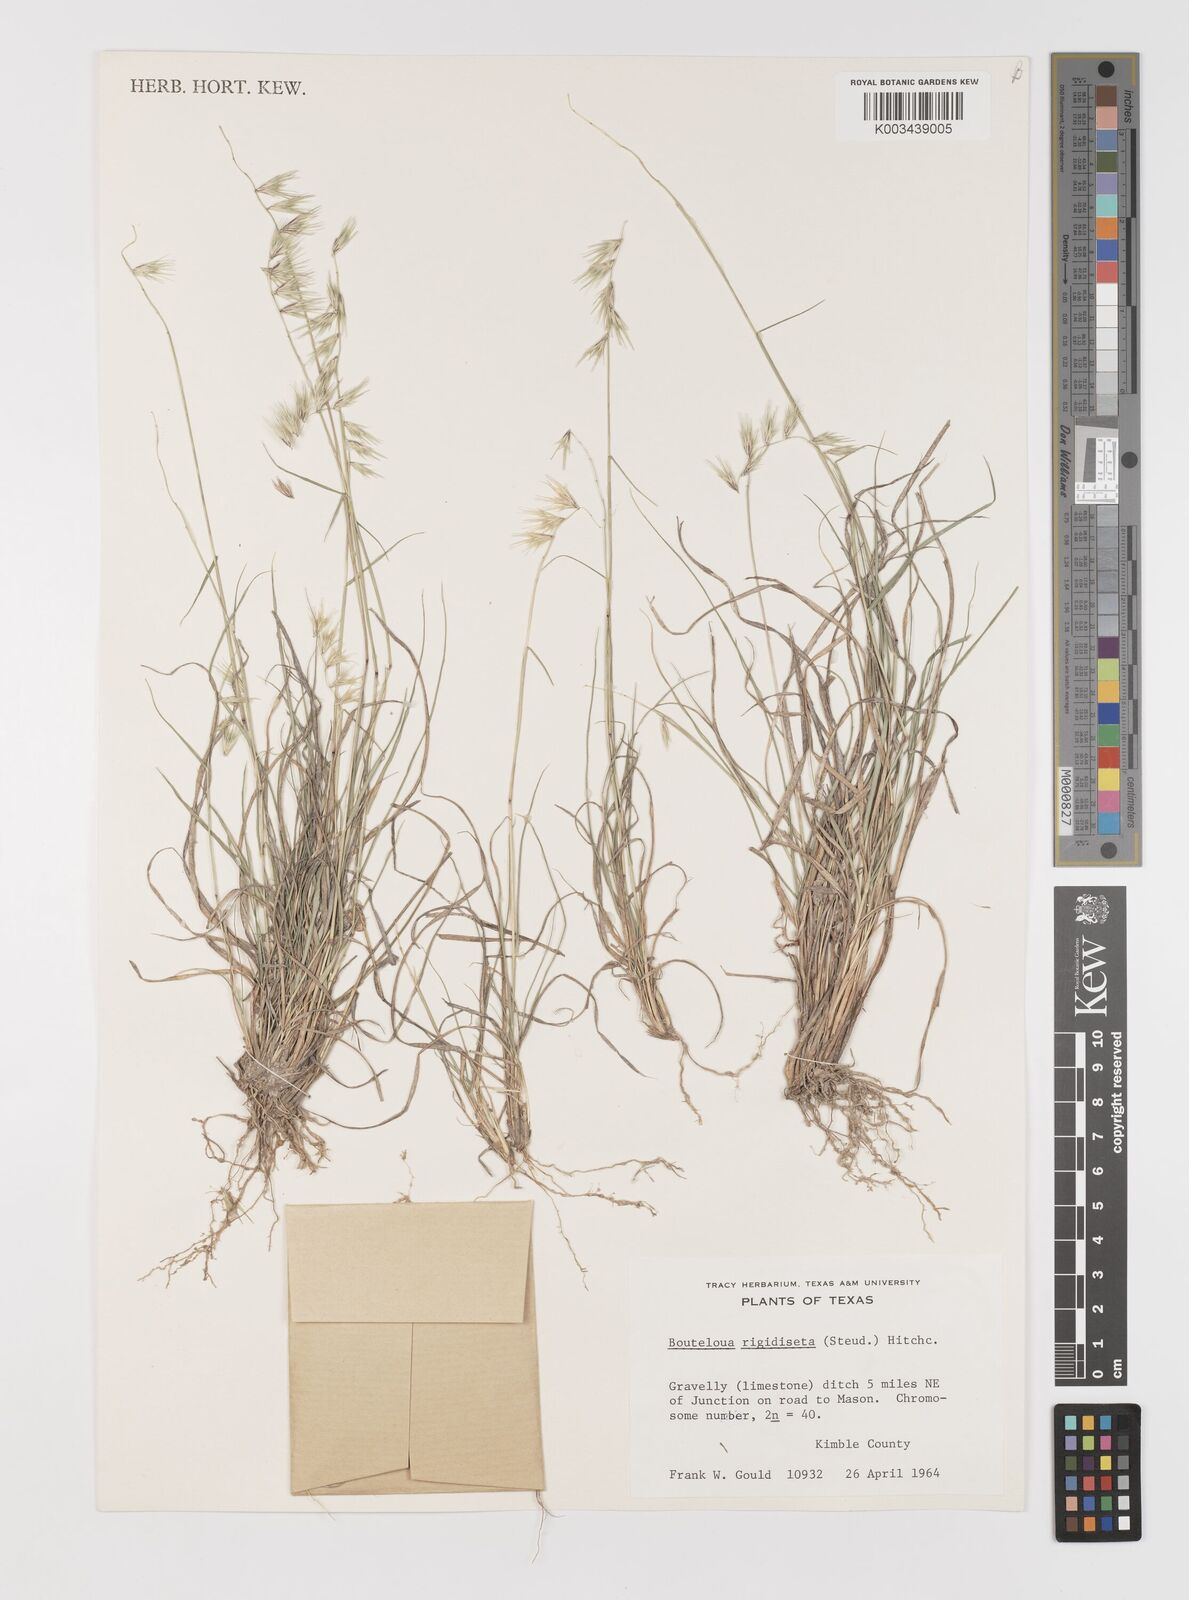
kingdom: Plantae
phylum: Tracheophyta
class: Liliopsida
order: Poales
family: Poaceae
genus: Bouteloua
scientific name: Bouteloua rigidiseta
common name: Texas grama
